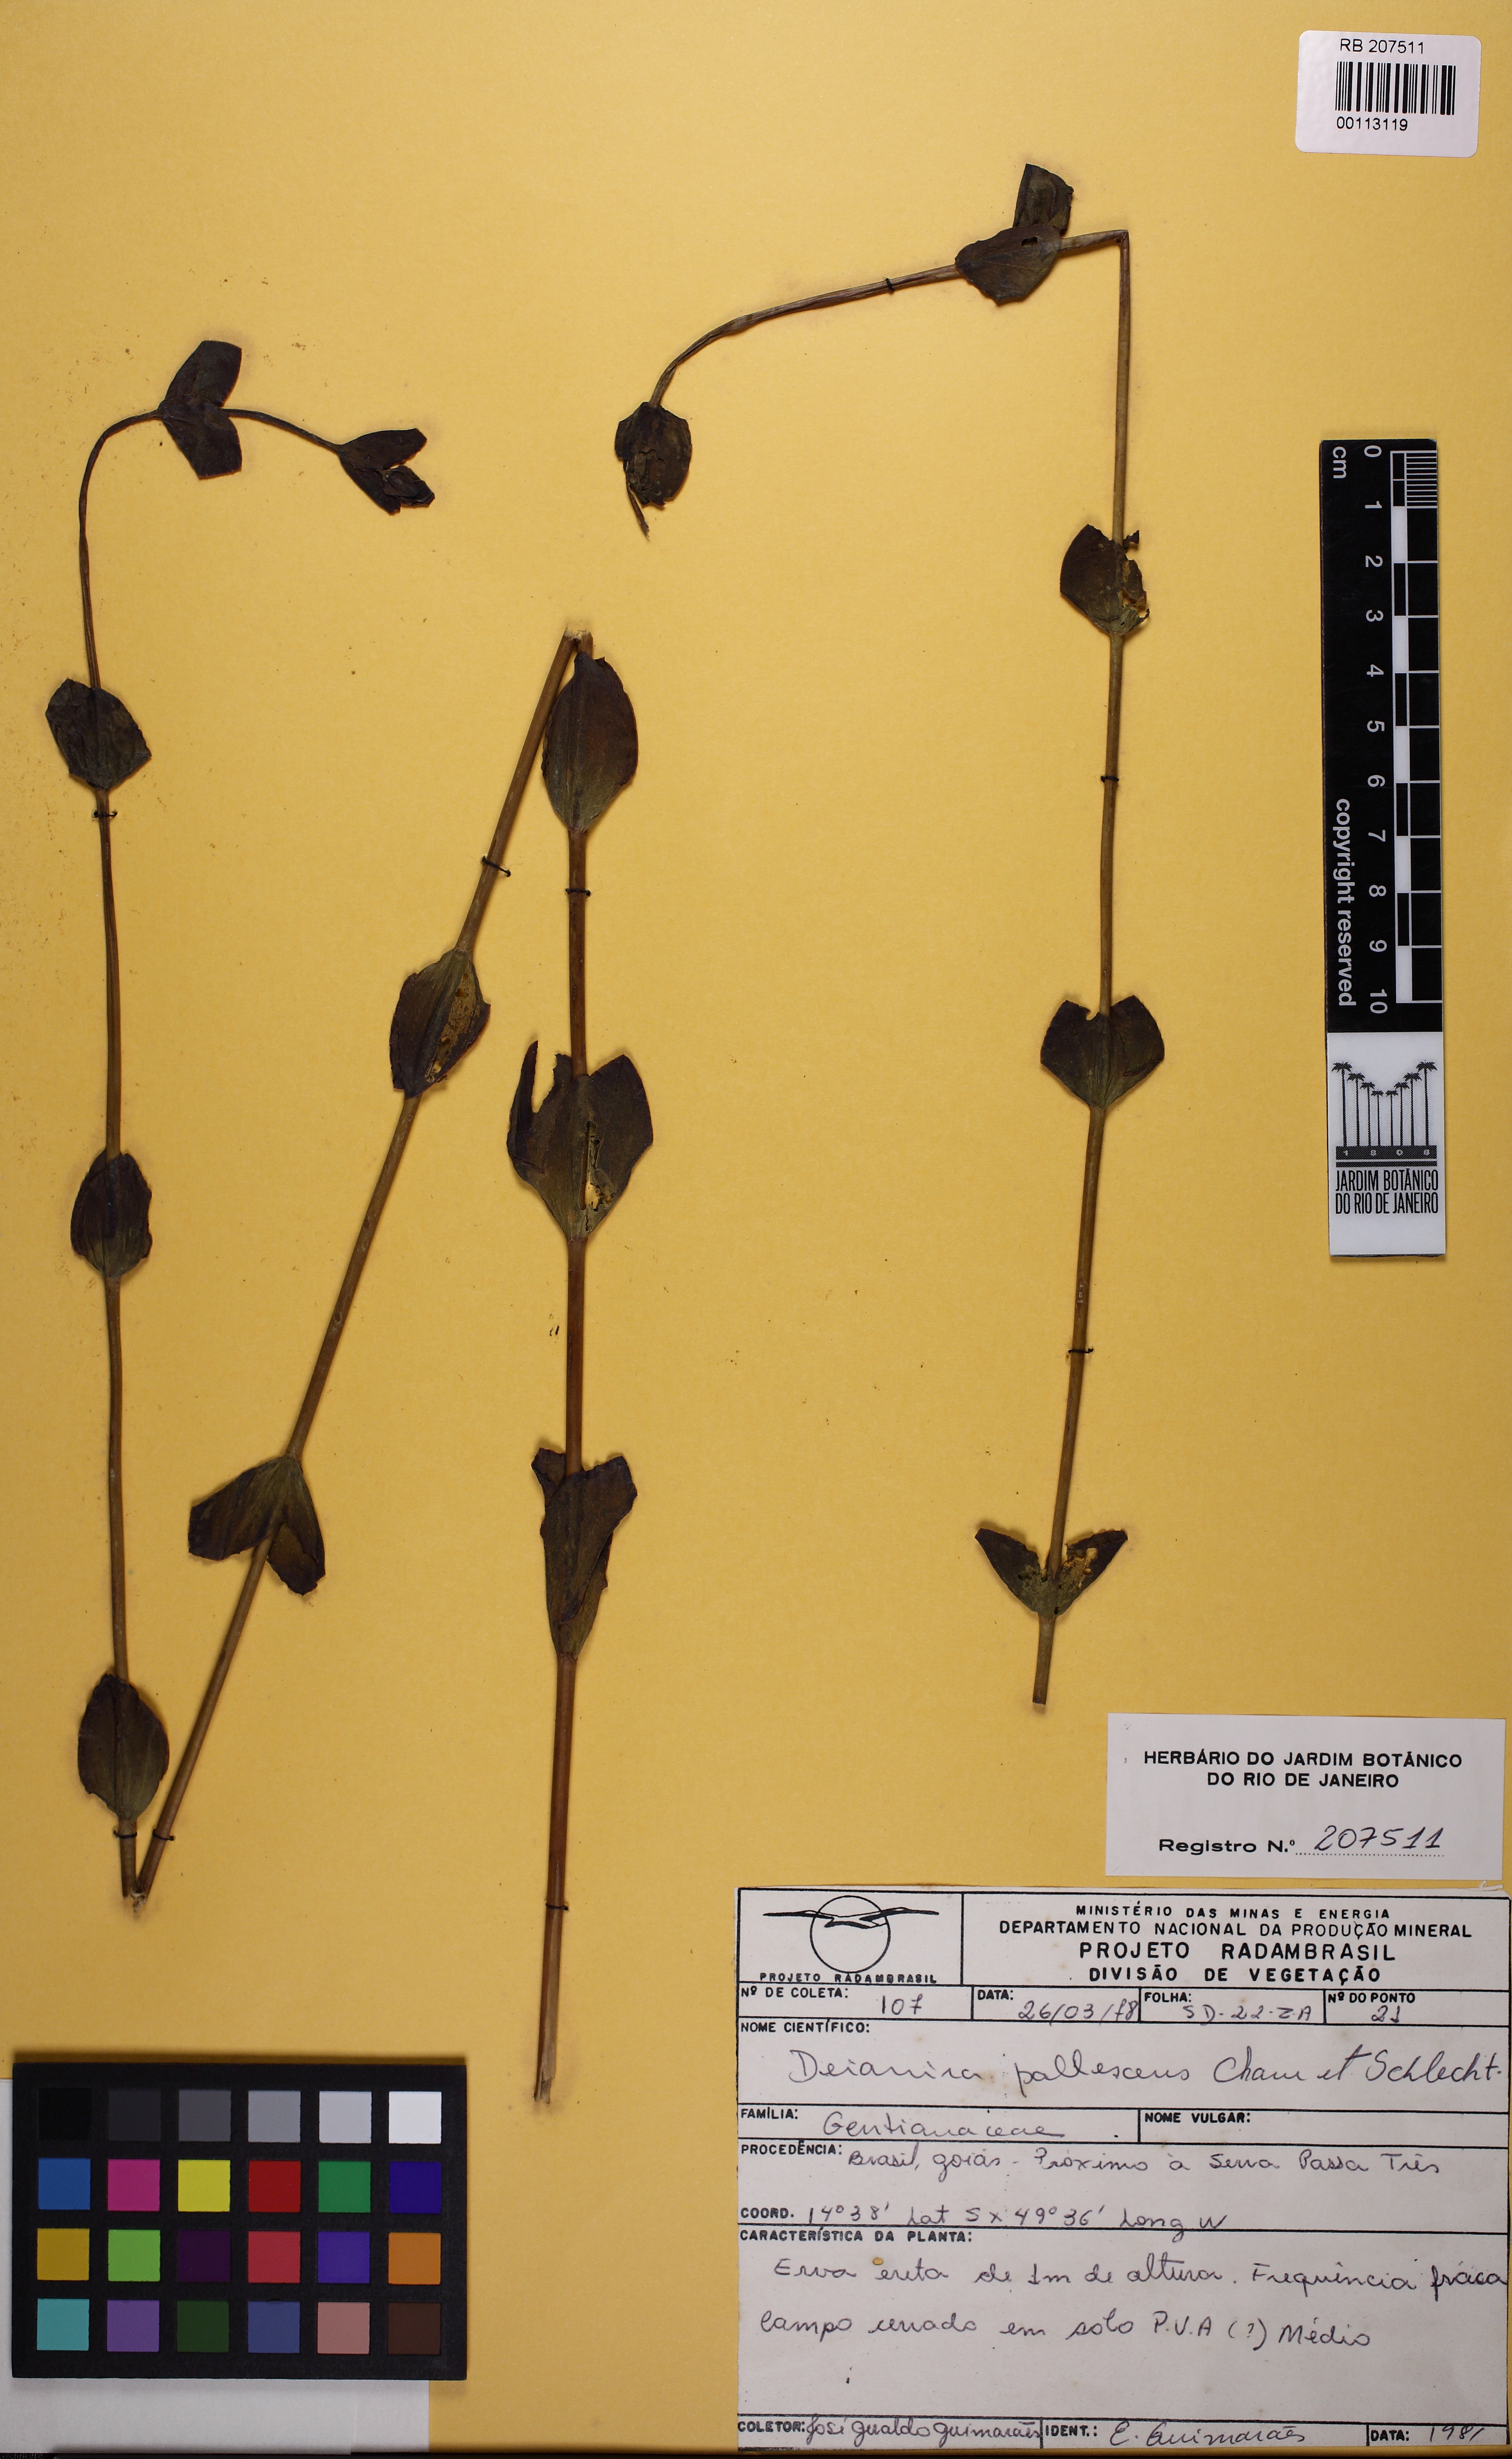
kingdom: Plantae
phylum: Tracheophyta
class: Magnoliopsida
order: Gentianales
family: Gentianaceae
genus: Deianira
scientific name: Deianira pallescens
